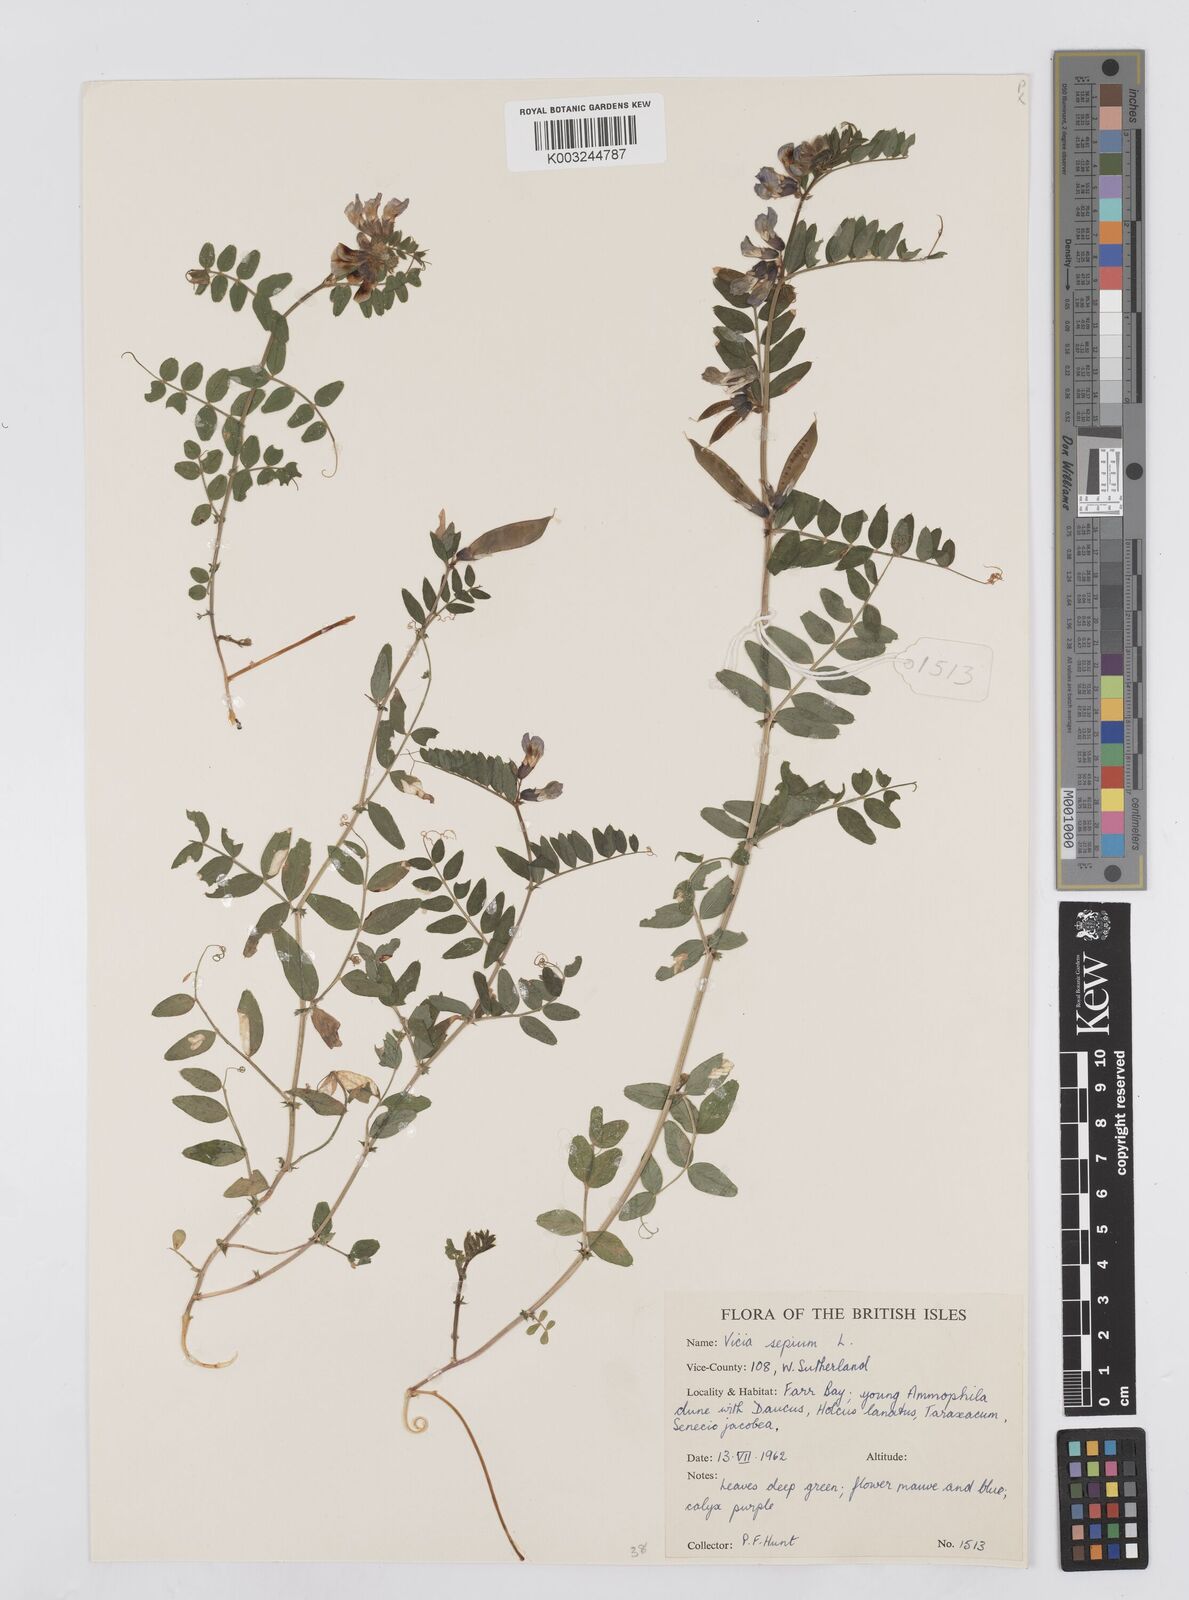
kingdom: Plantae
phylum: Tracheophyta
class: Magnoliopsida
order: Fabales
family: Fabaceae
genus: Vicia
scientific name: Vicia sepium
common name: Bush vetch
